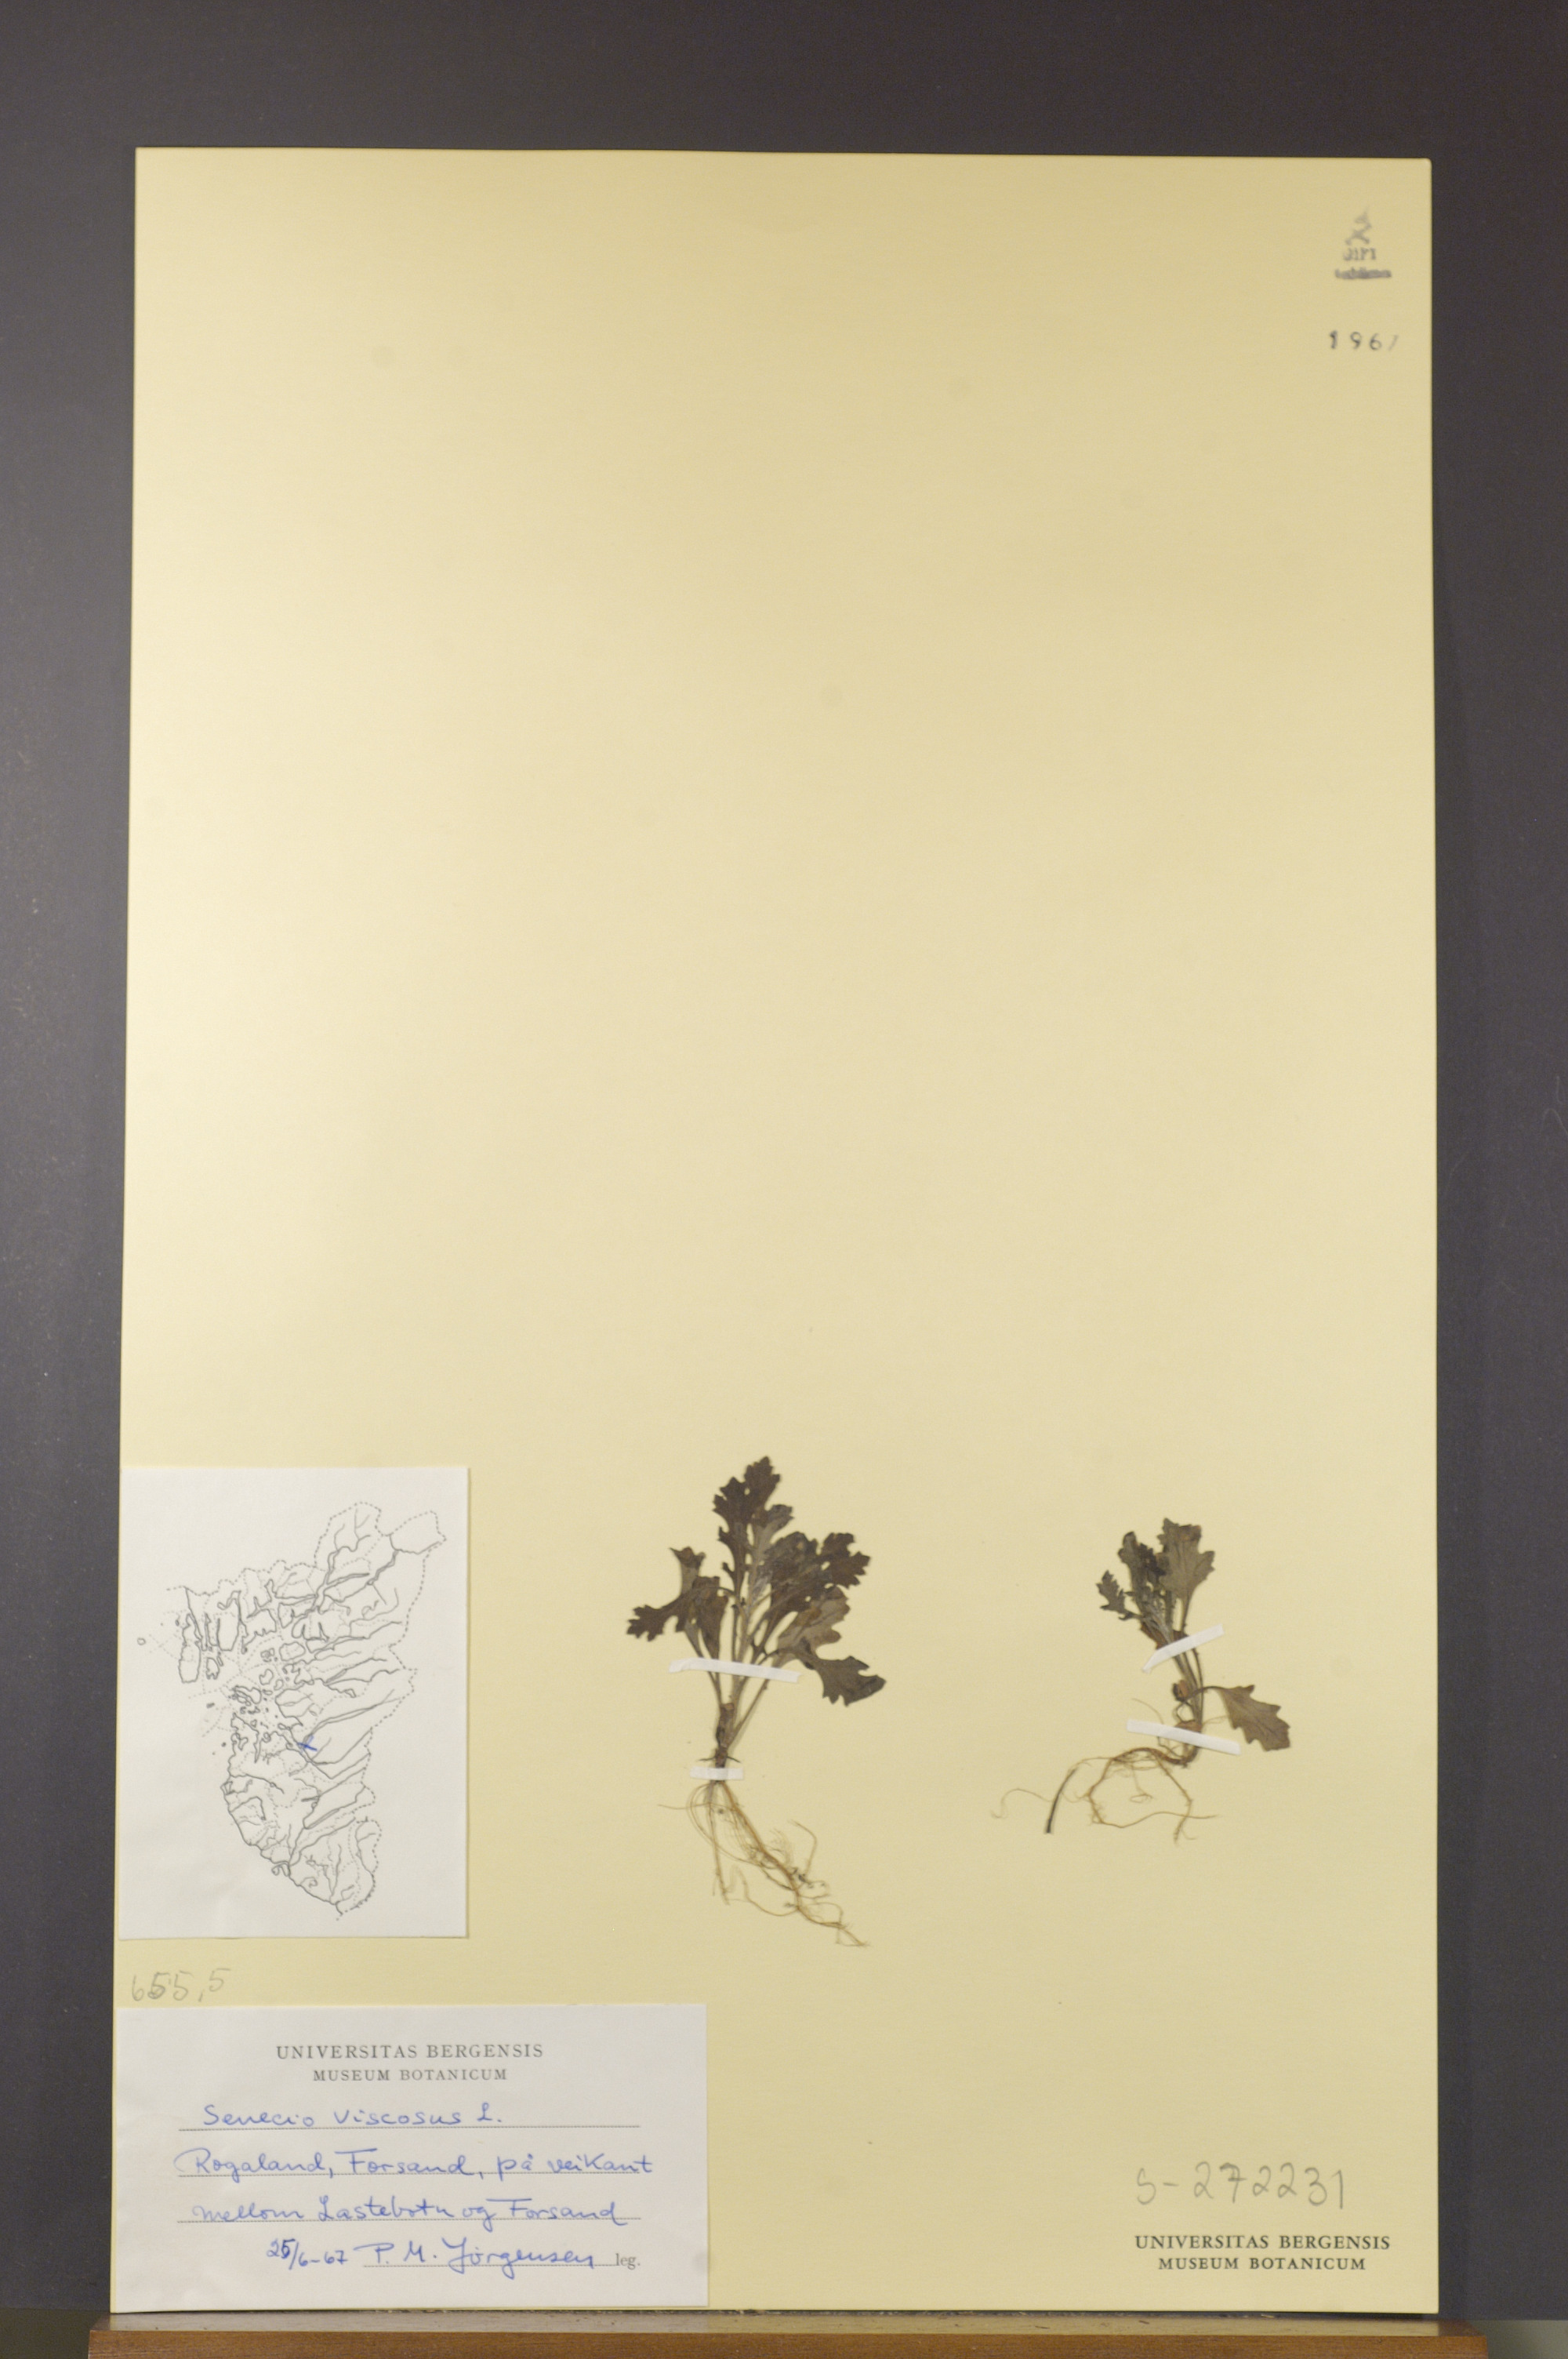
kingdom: Plantae
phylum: Tracheophyta
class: Magnoliopsida
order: Asterales
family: Asteraceae
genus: Senecio
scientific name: Senecio viscosus
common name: Sticky groundsel
